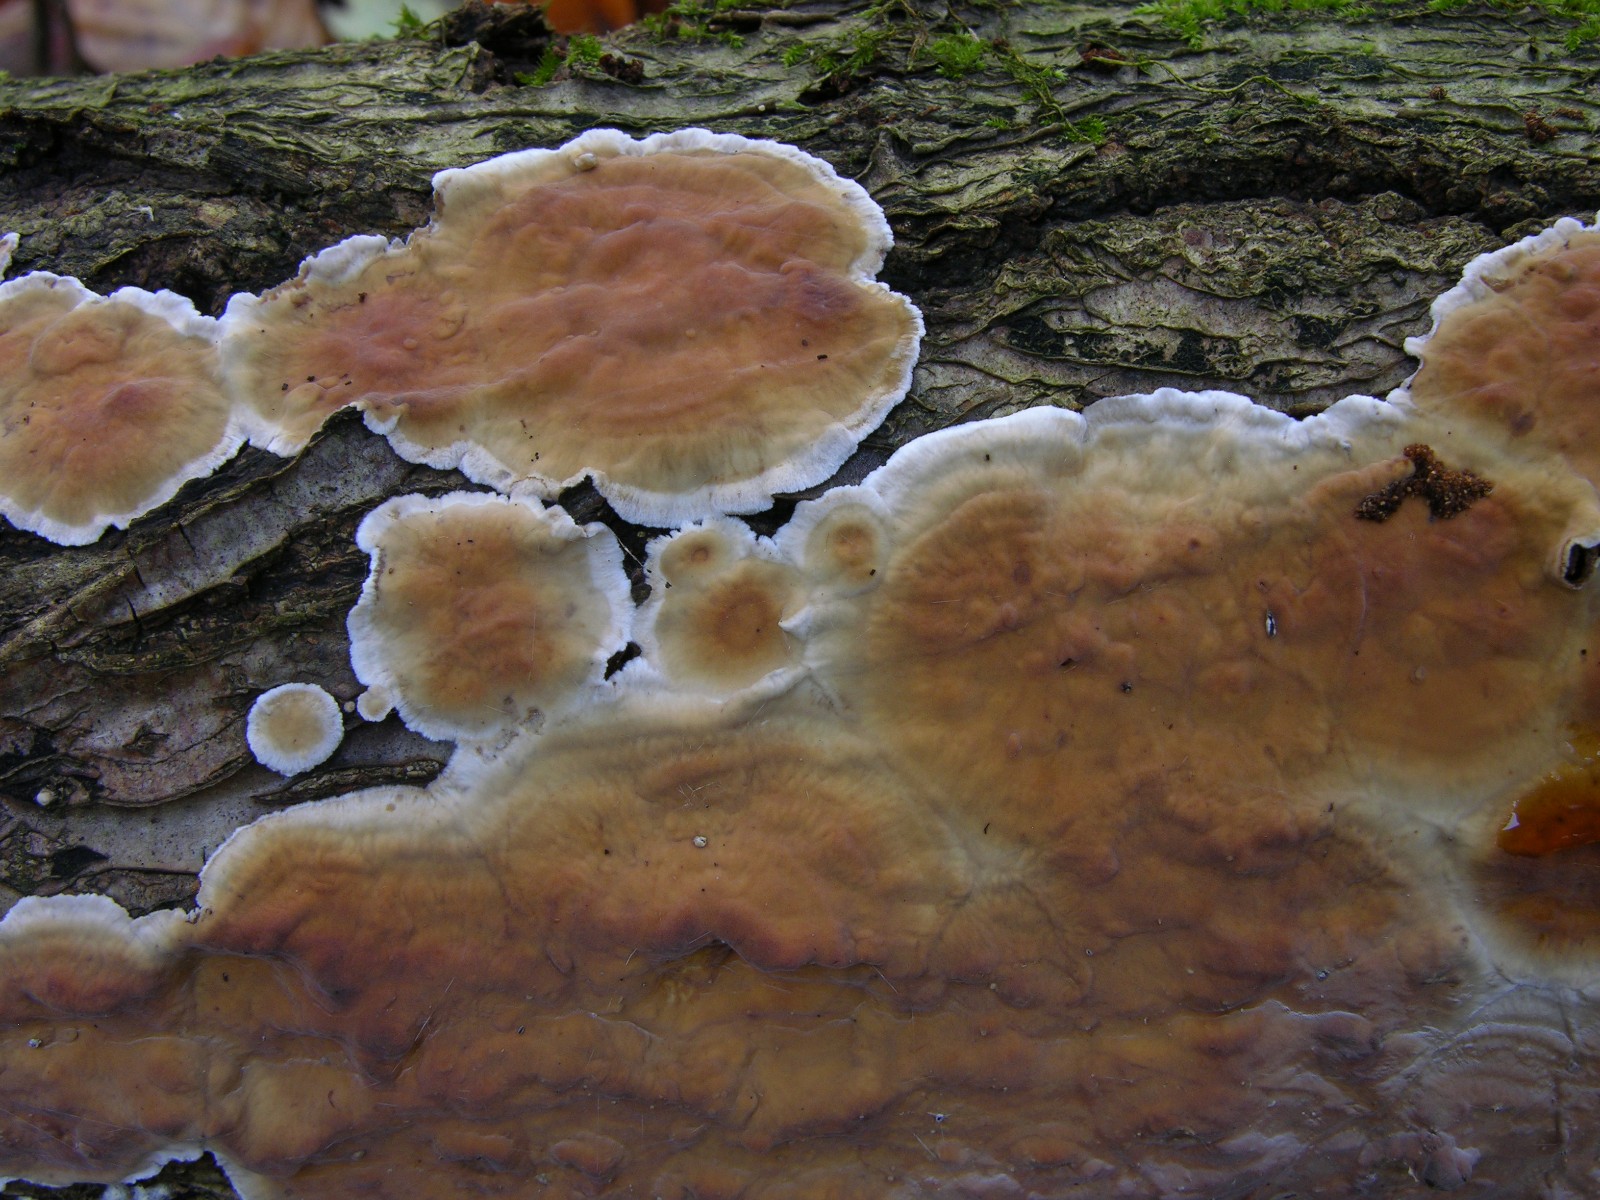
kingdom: Fungi
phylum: Basidiomycota
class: Agaricomycetes
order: Russulales
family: Stereaceae
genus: Stereum
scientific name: Stereum hirsutum
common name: håret lædersvamp
